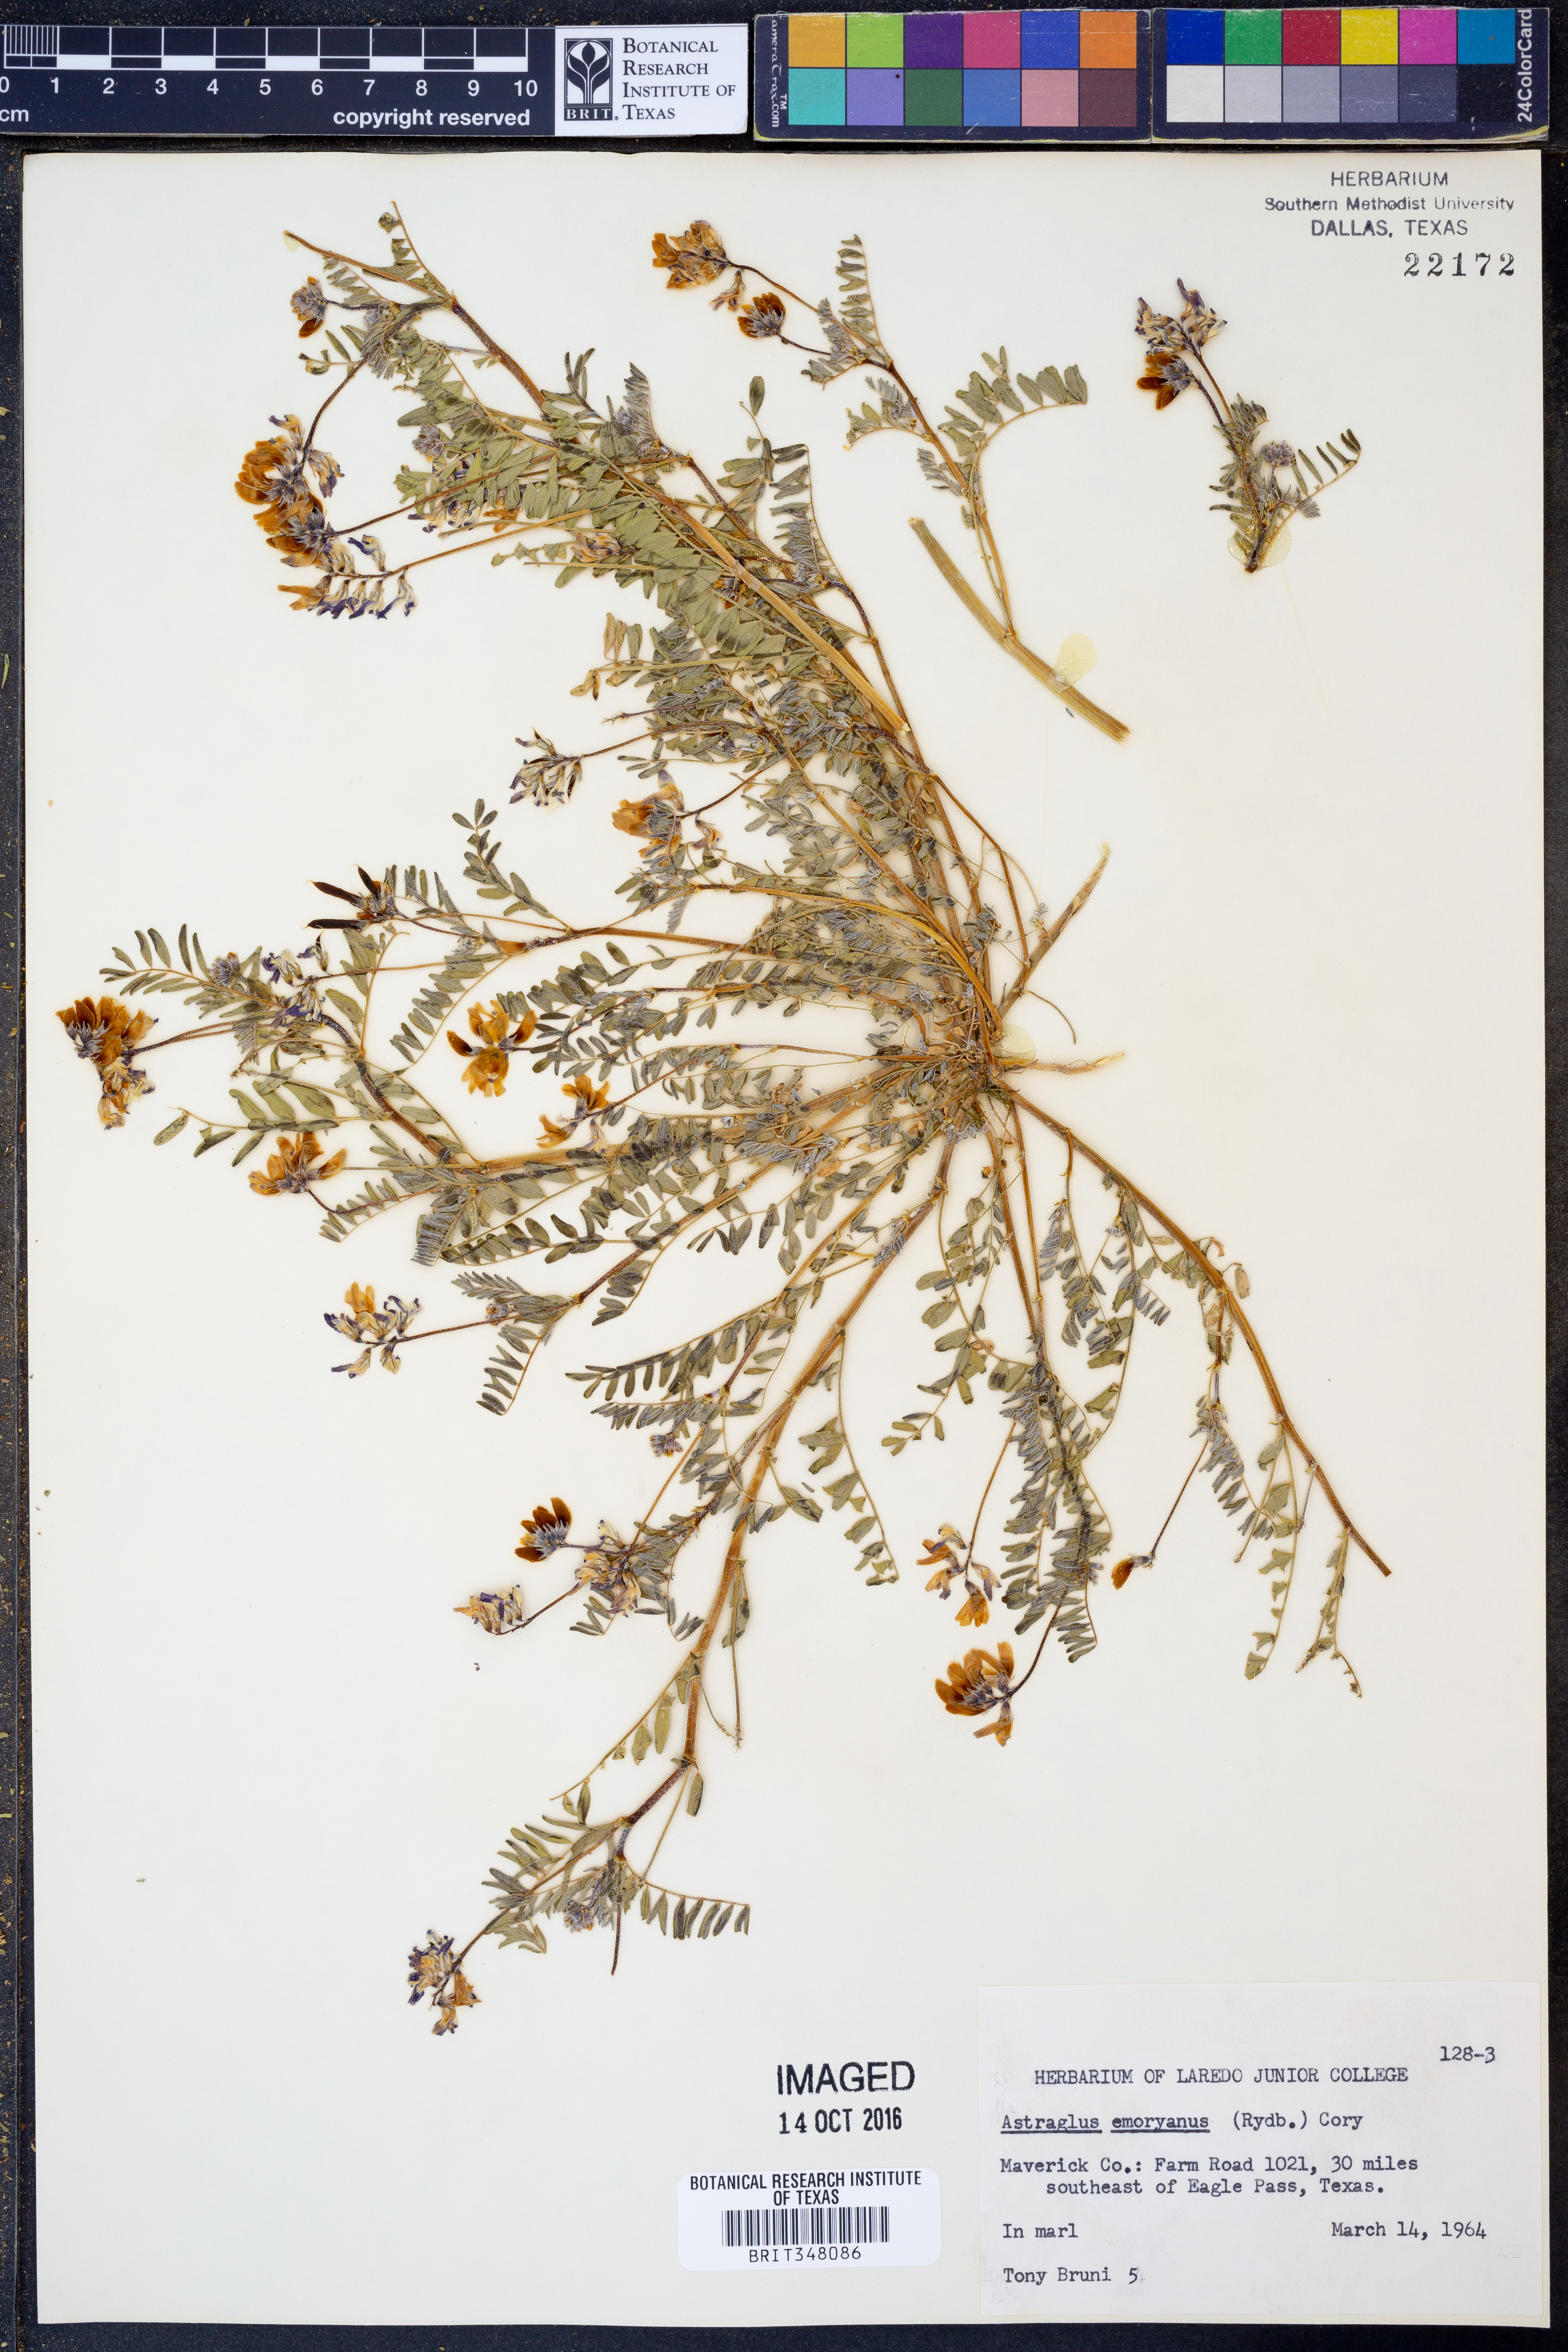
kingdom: Plantae
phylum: Tracheophyta
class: Magnoliopsida
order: Fabales
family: Fabaceae
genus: Astragalus
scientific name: Astragalus emoryanus
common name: Emory's milk-vetch
